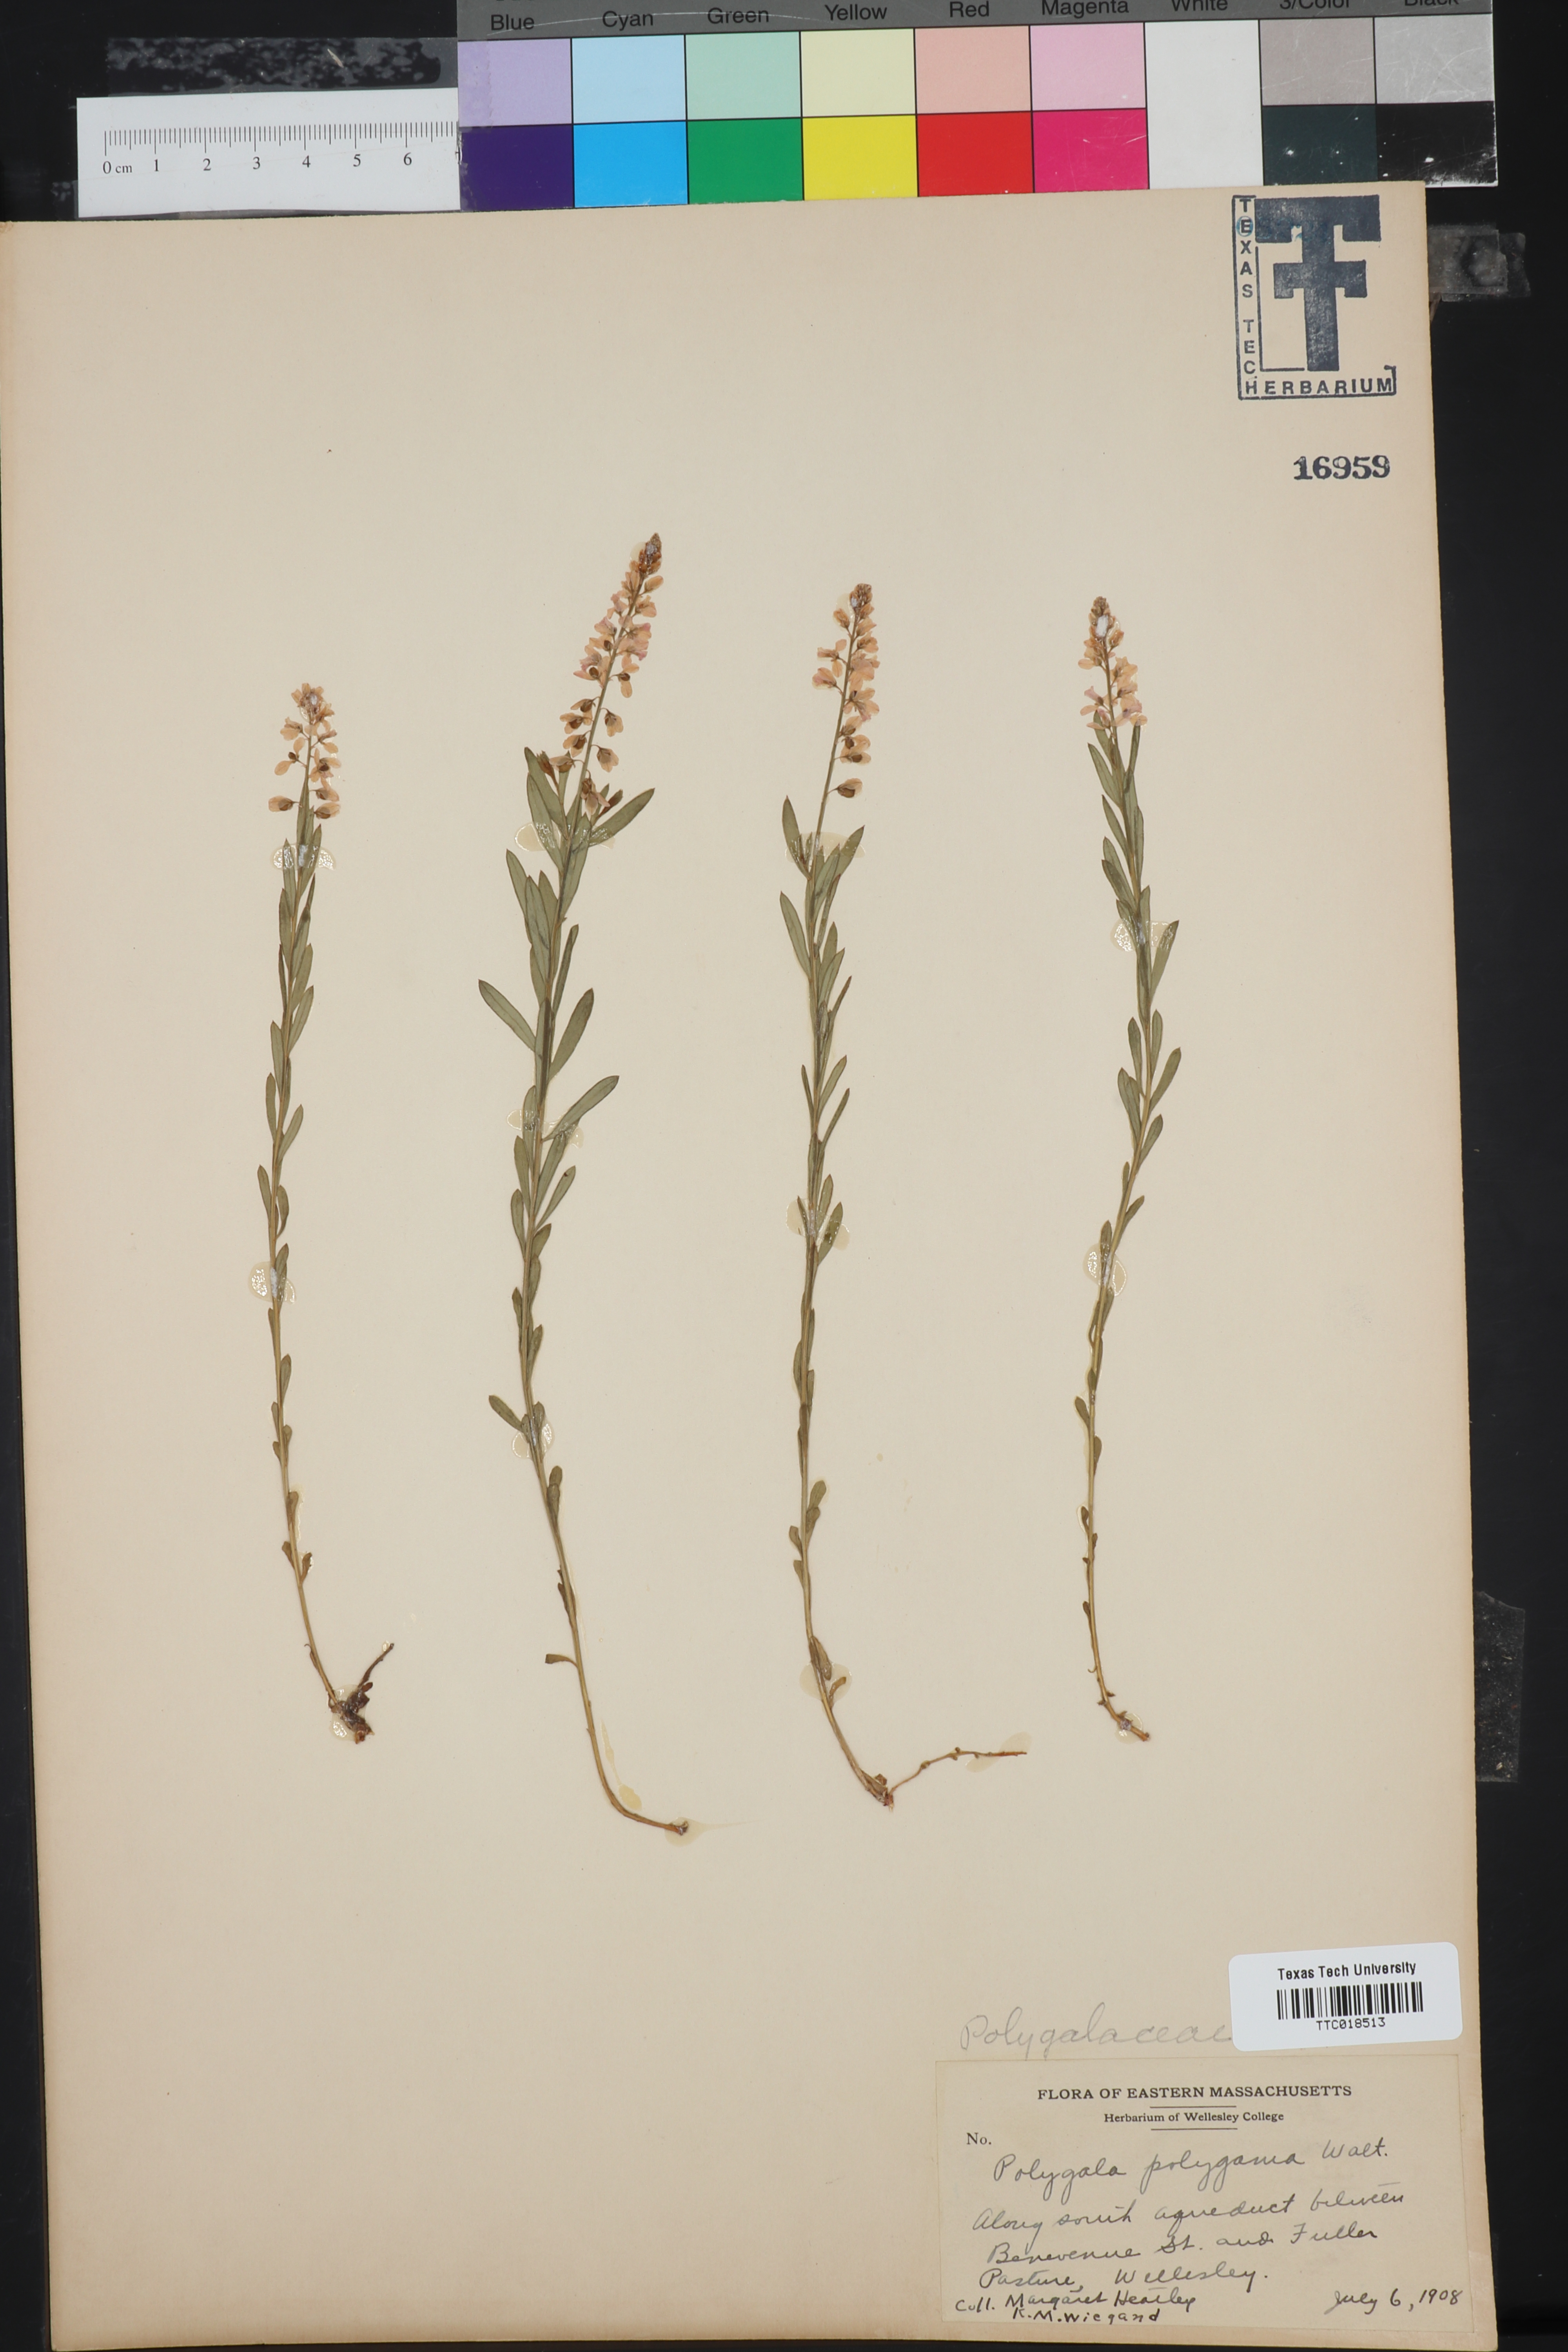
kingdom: Plantae
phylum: Tracheophyta
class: Magnoliopsida
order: Fabales
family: Polygalaceae
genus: Polygala
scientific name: Polygala polygama
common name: Bitter milkwort
